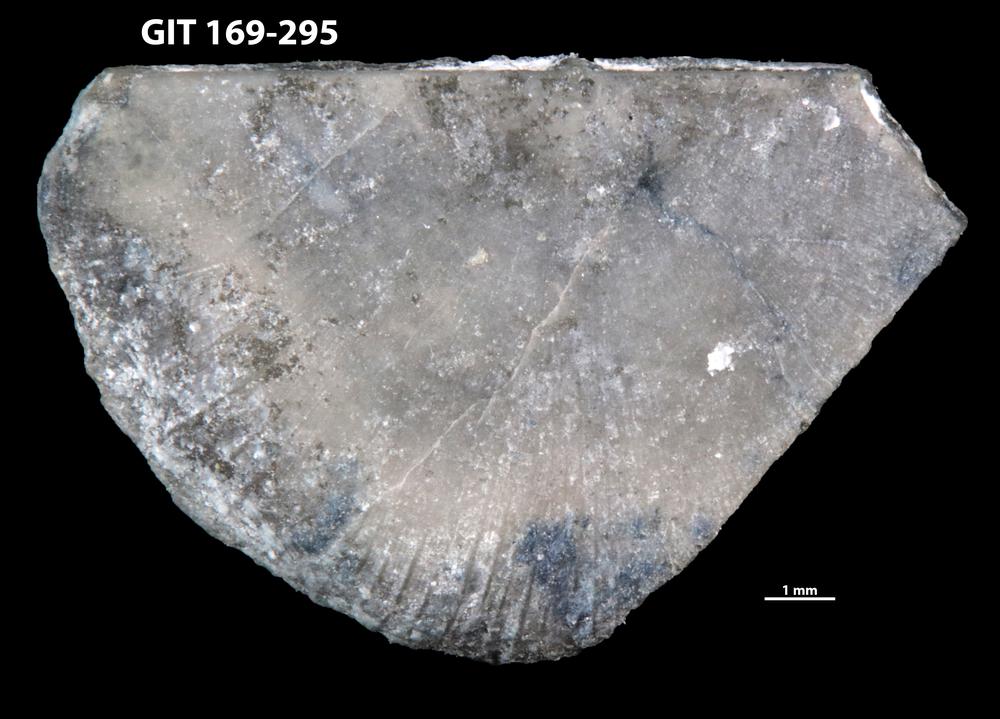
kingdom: Animalia
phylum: Brachiopoda
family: Amphistrophiidae
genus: Eoamphistrophia
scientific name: Eoamphistrophia whittardi
